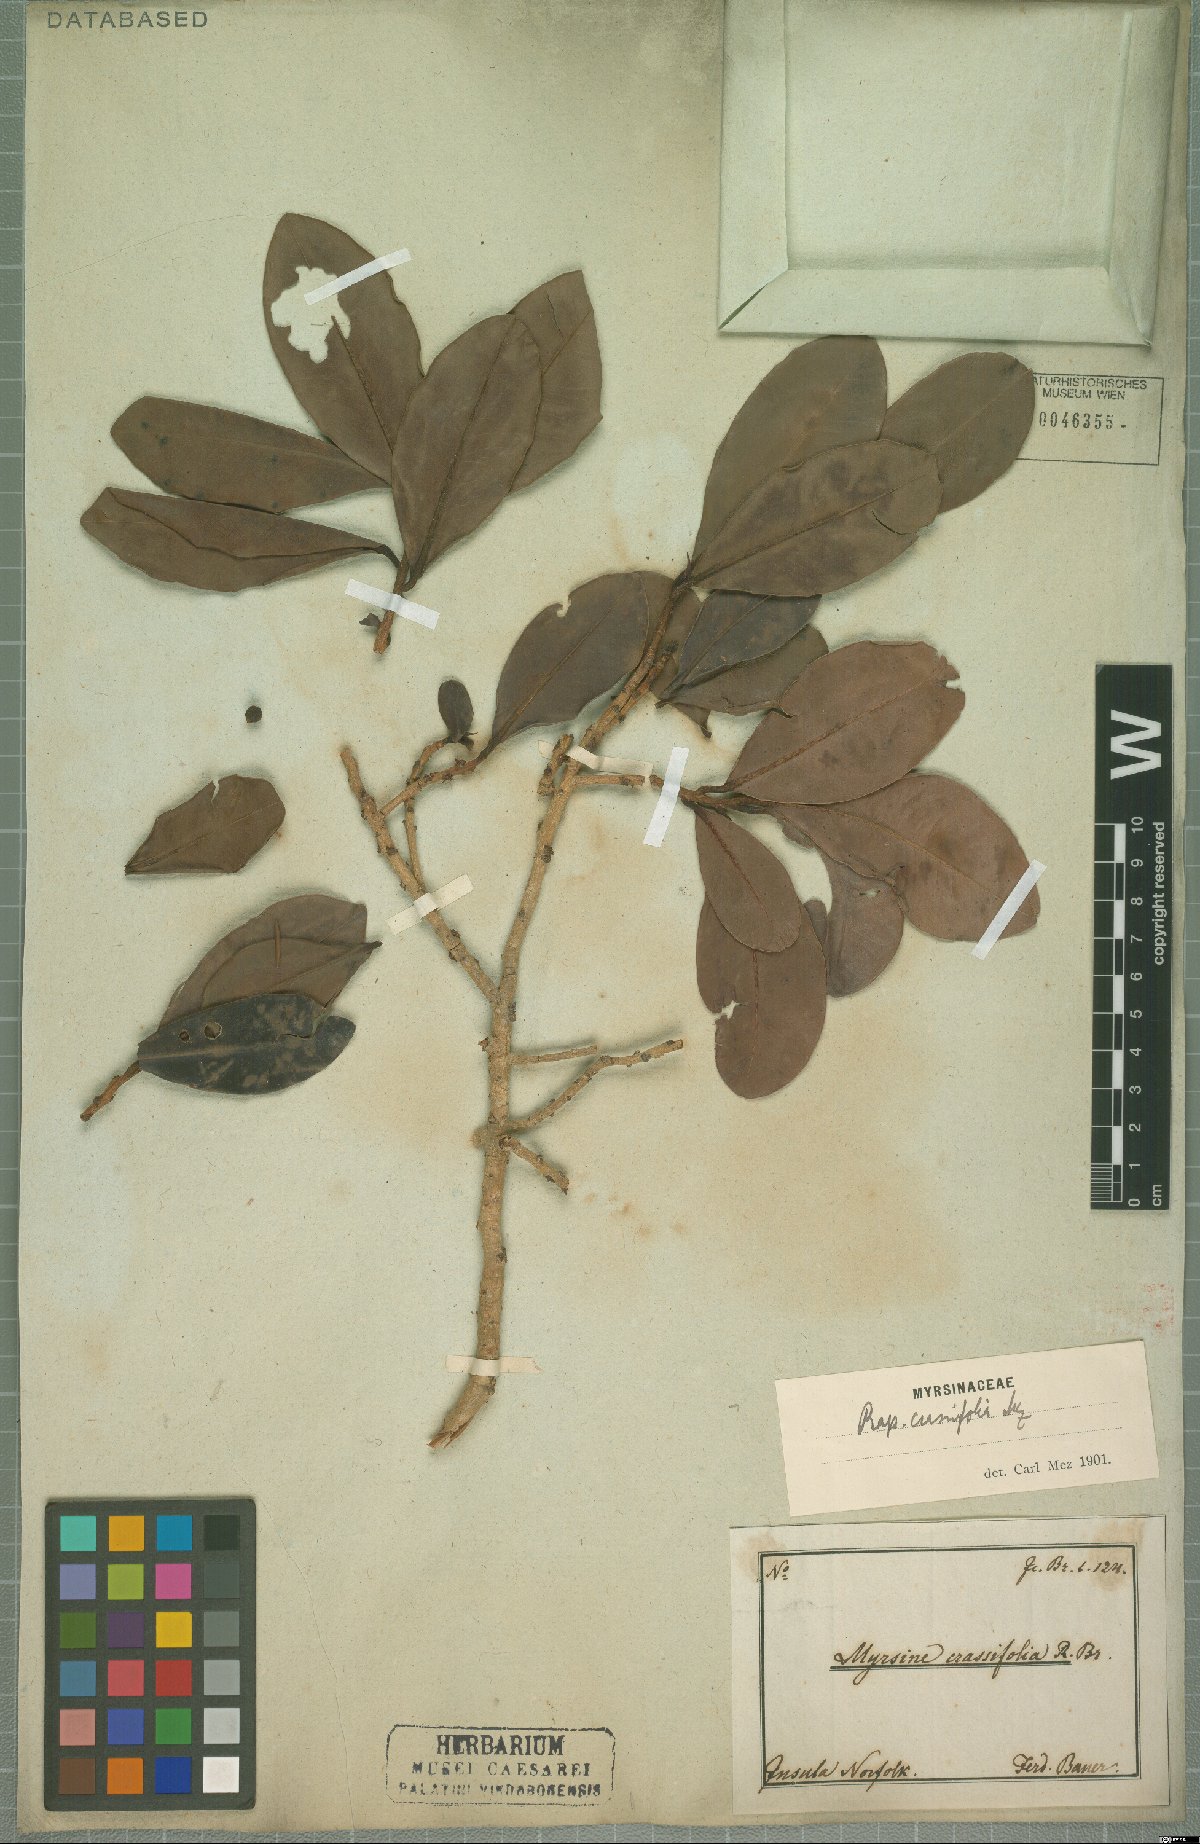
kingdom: Plantae
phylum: Tracheophyta
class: Magnoliopsida
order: Ericales
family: Primulaceae
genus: Myrsine
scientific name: Myrsine crassifolia
